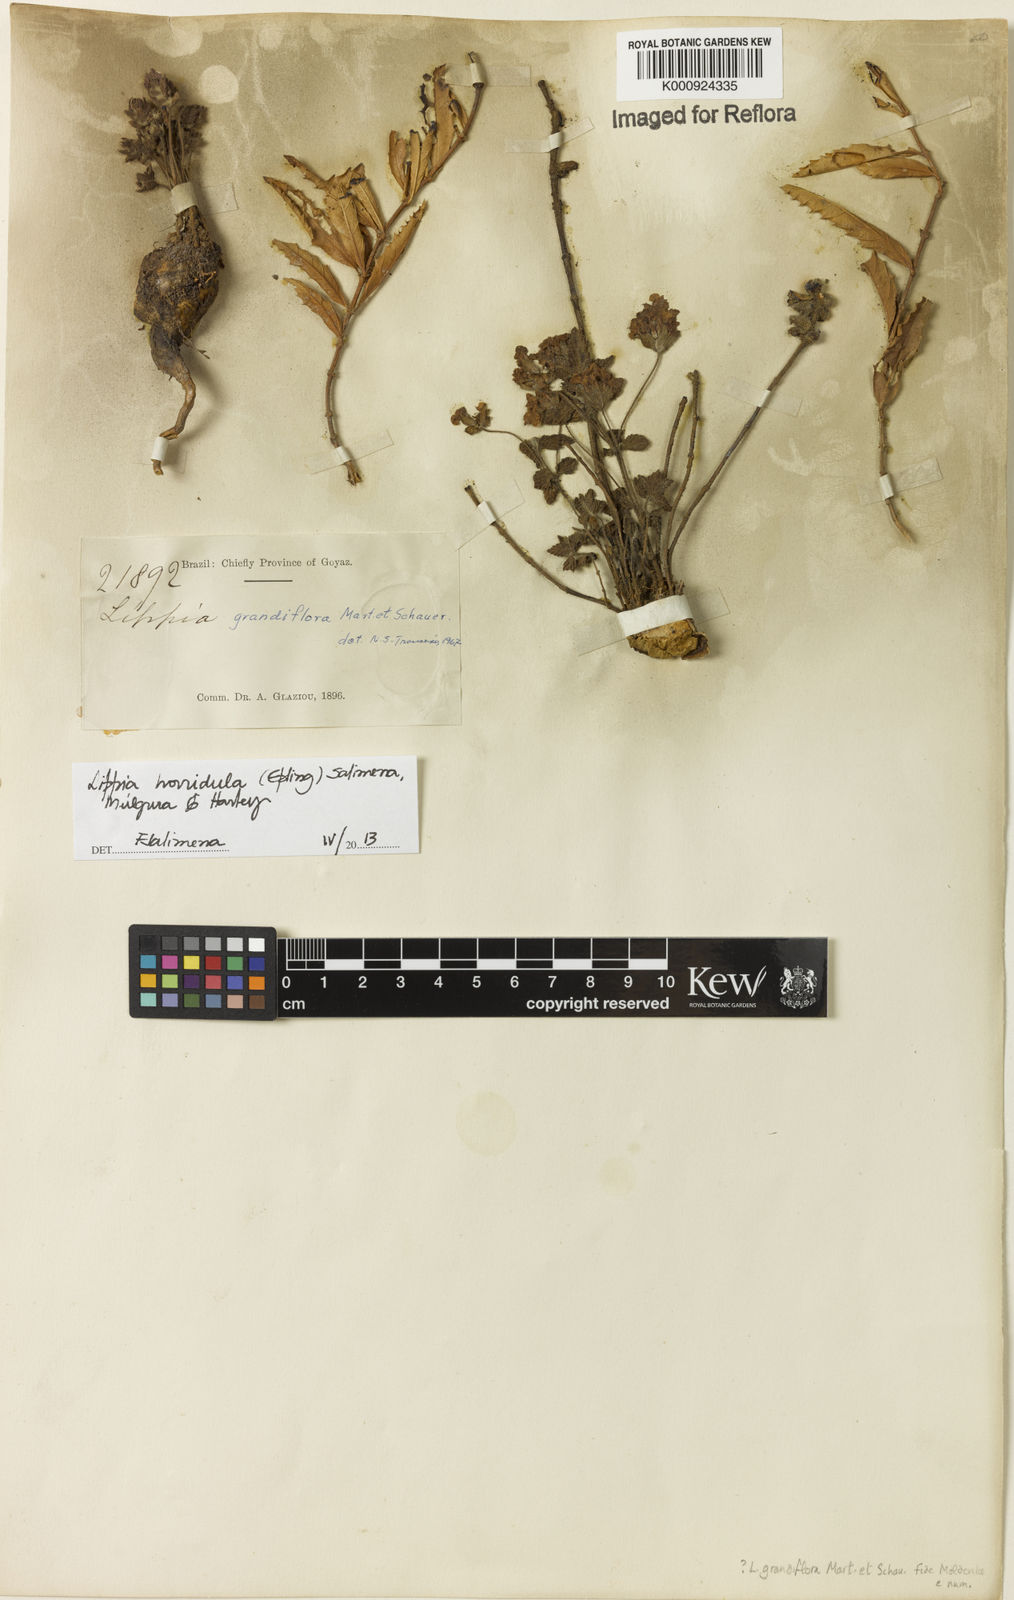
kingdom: Plantae
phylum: Tracheophyta
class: Magnoliopsida
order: Lamiales
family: Verbenaceae
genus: Lippia
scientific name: Lippia
